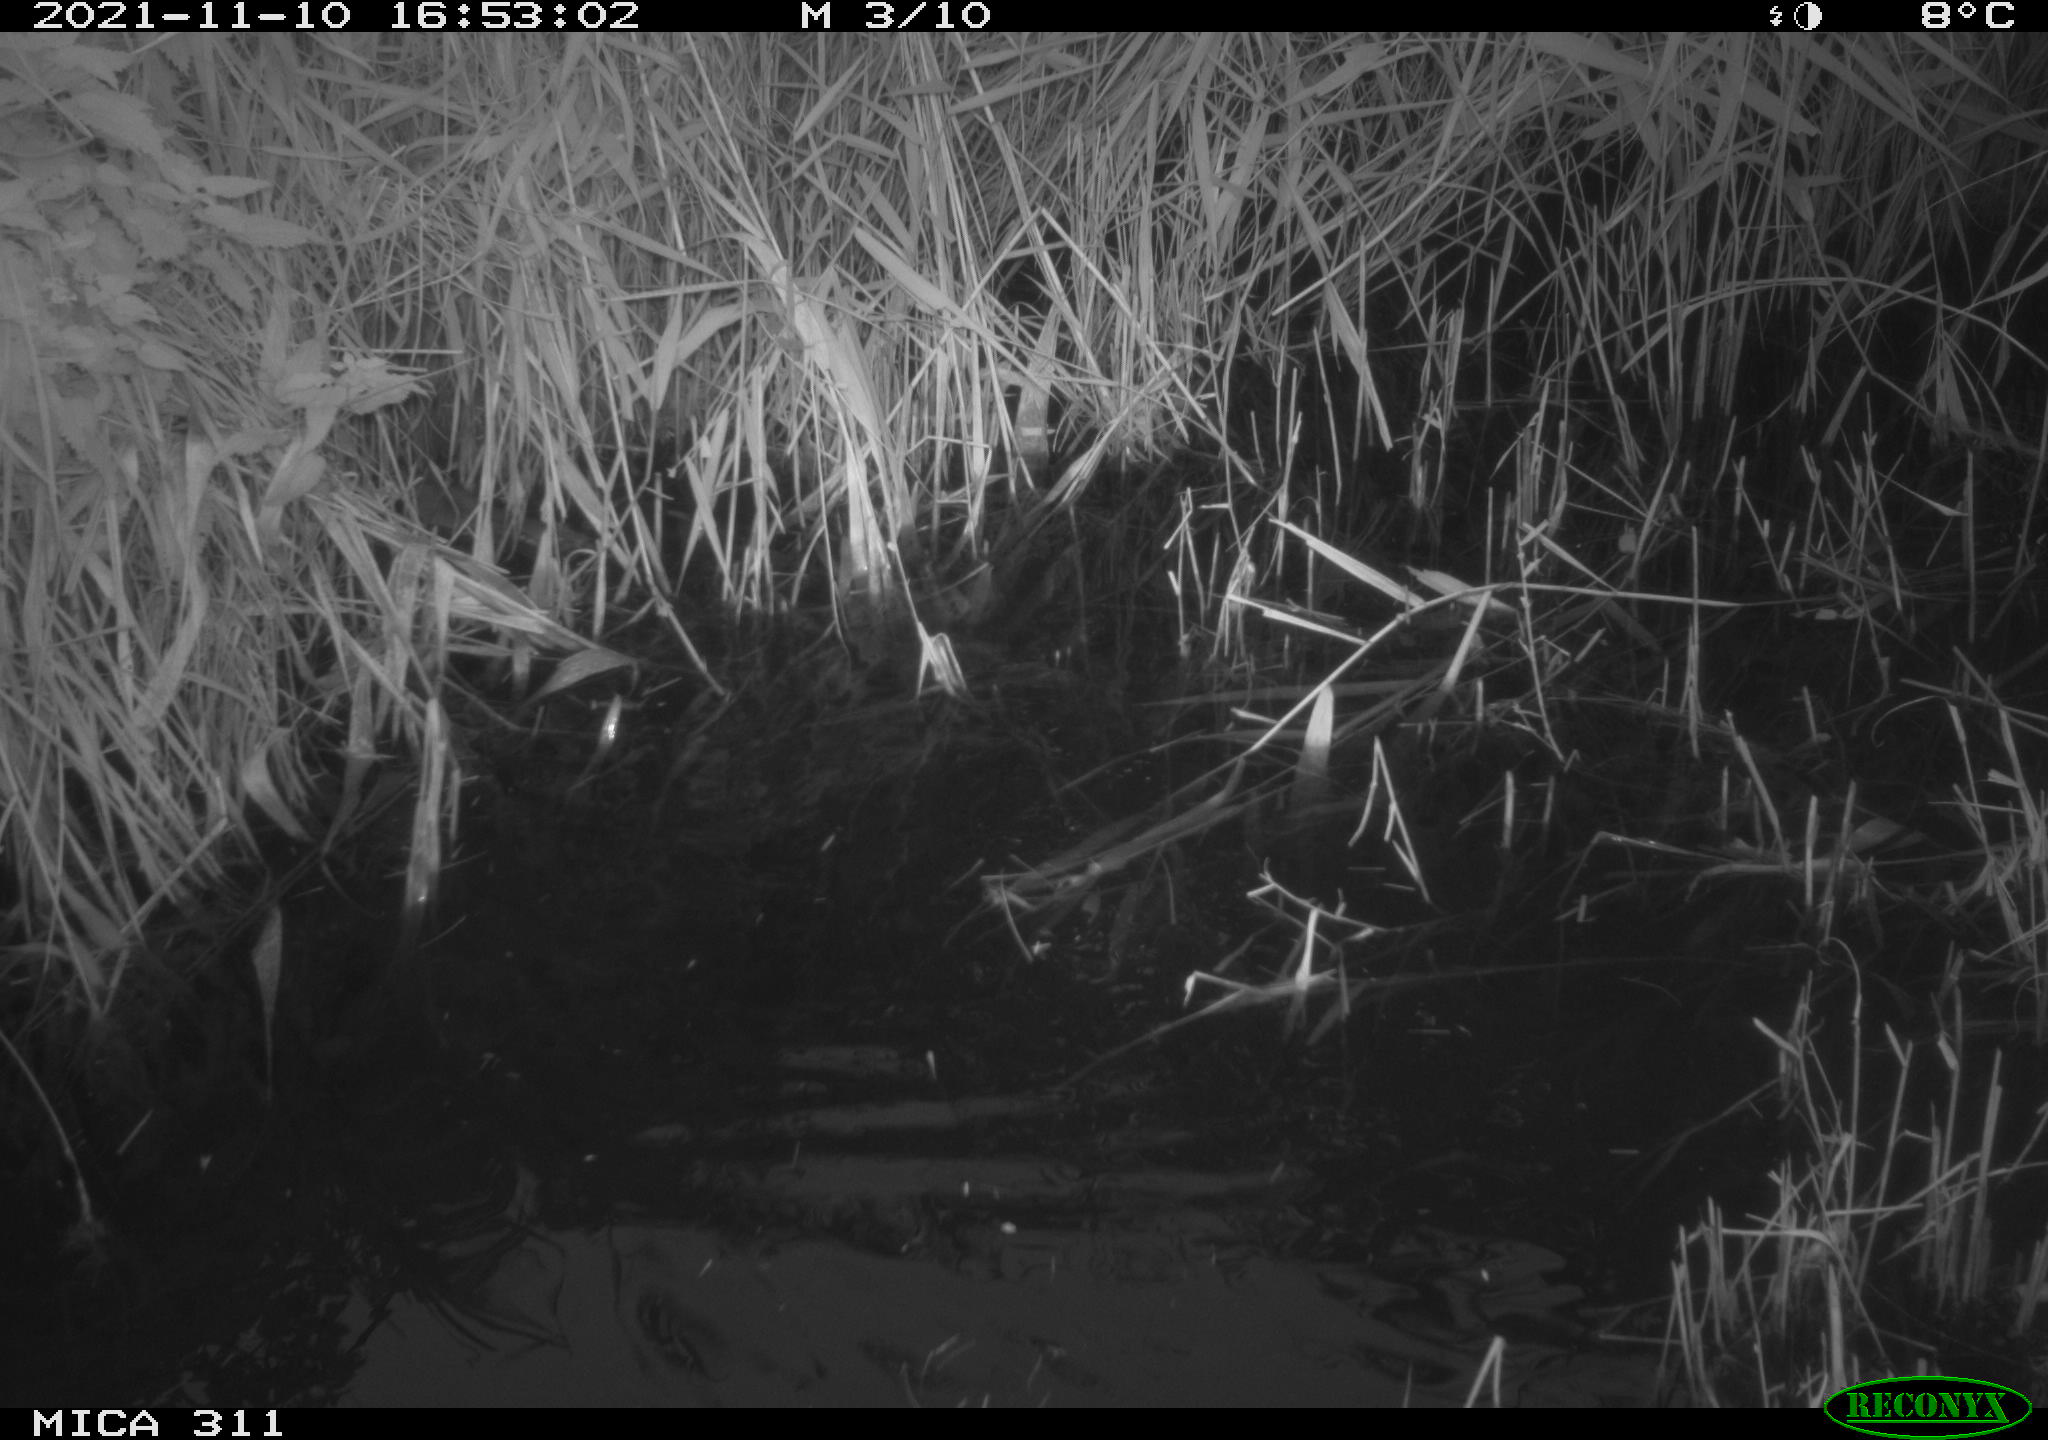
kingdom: Animalia
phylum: Chordata
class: Mammalia
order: Rodentia
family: Muridae
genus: Rattus
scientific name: Rattus norvegicus
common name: Brown rat
